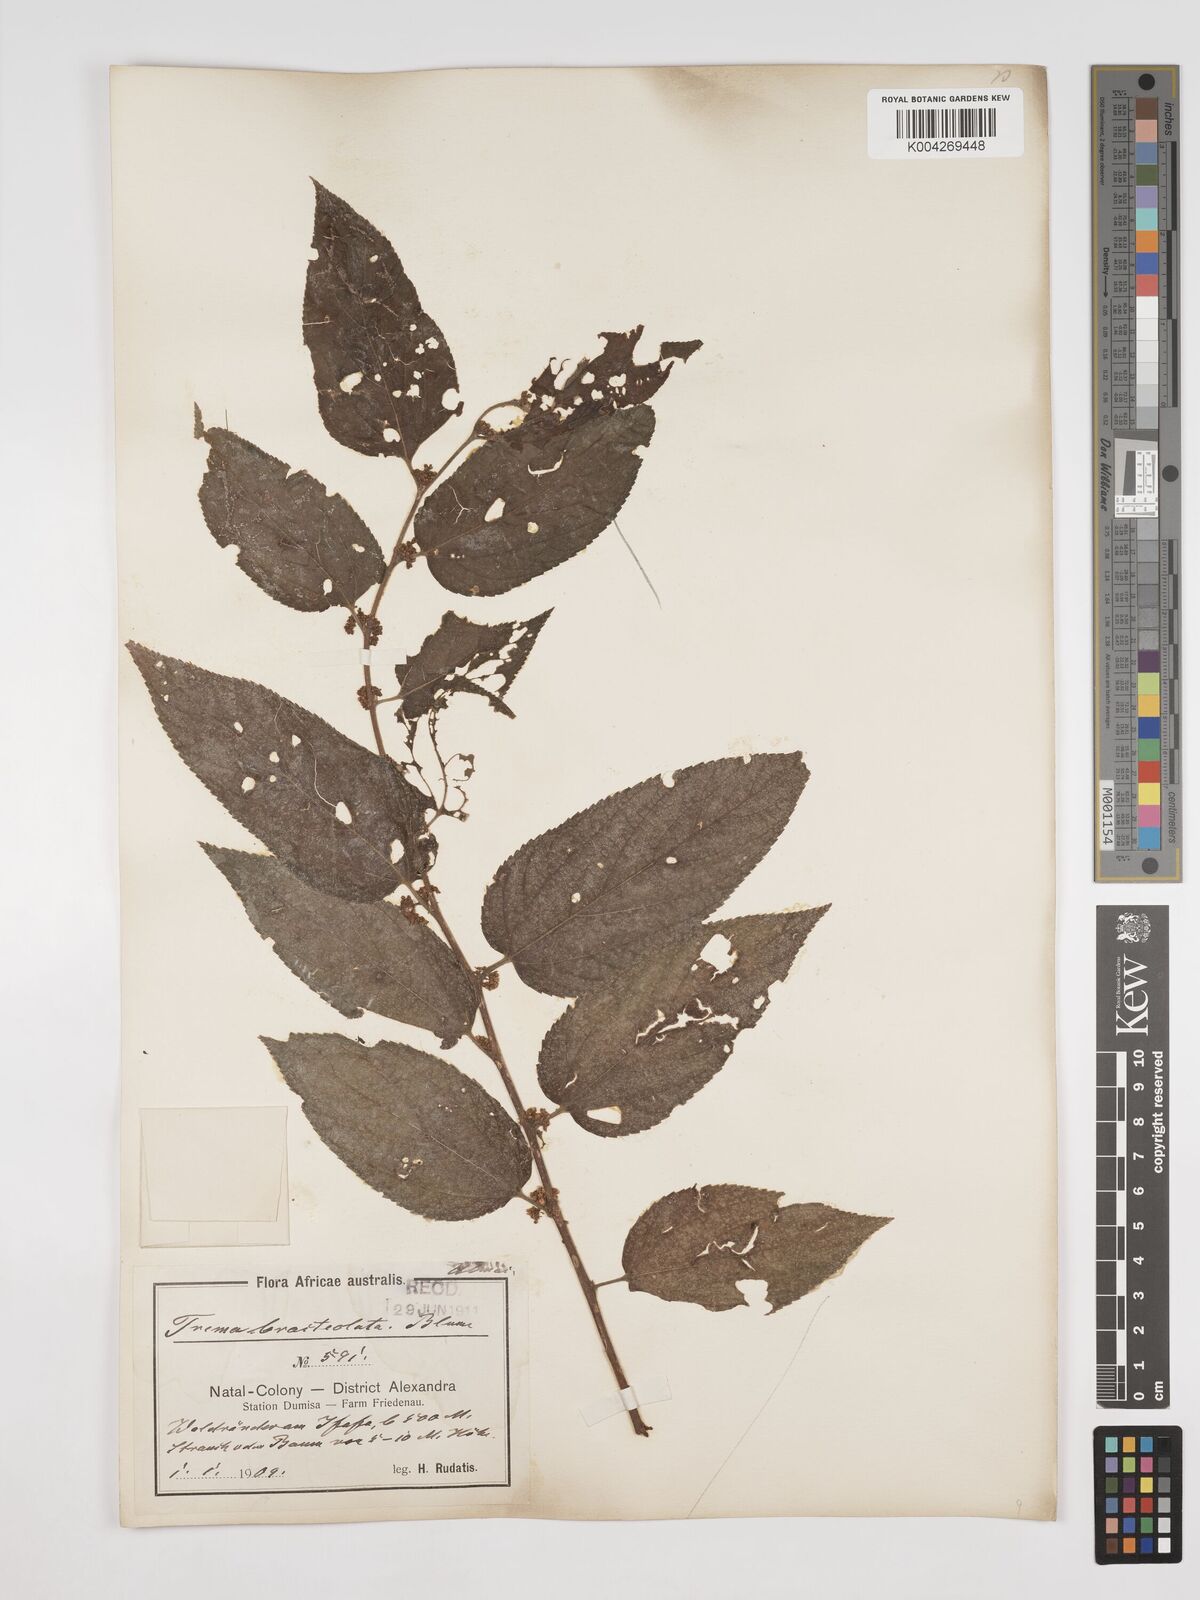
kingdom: Plantae
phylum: Tracheophyta
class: Magnoliopsida
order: Rosales
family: Cannabaceae
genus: Trema
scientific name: Trema orientale
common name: Indian charcoal tree
